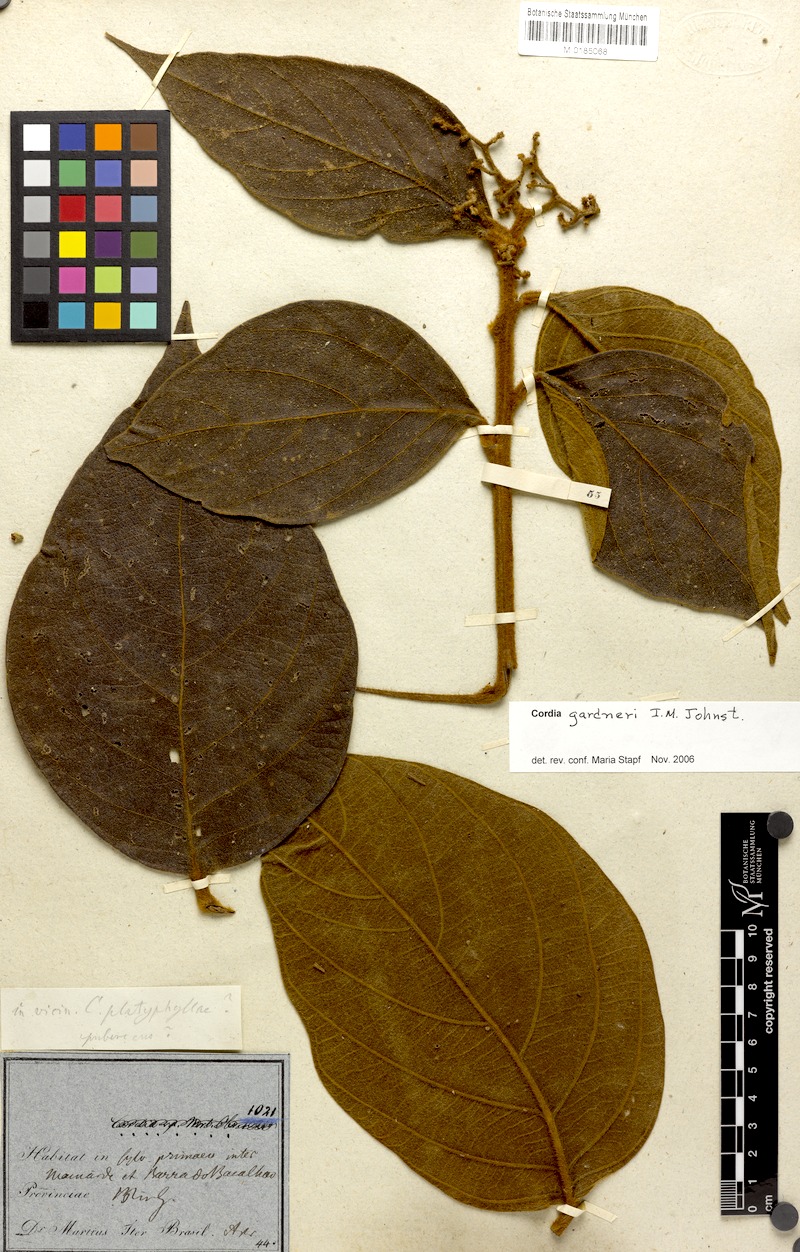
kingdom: Plantae
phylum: Tracheophyta
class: Magnoliopsida
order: Boraginales
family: Cordiaceae
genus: Cordia
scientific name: Cordia gardneri
